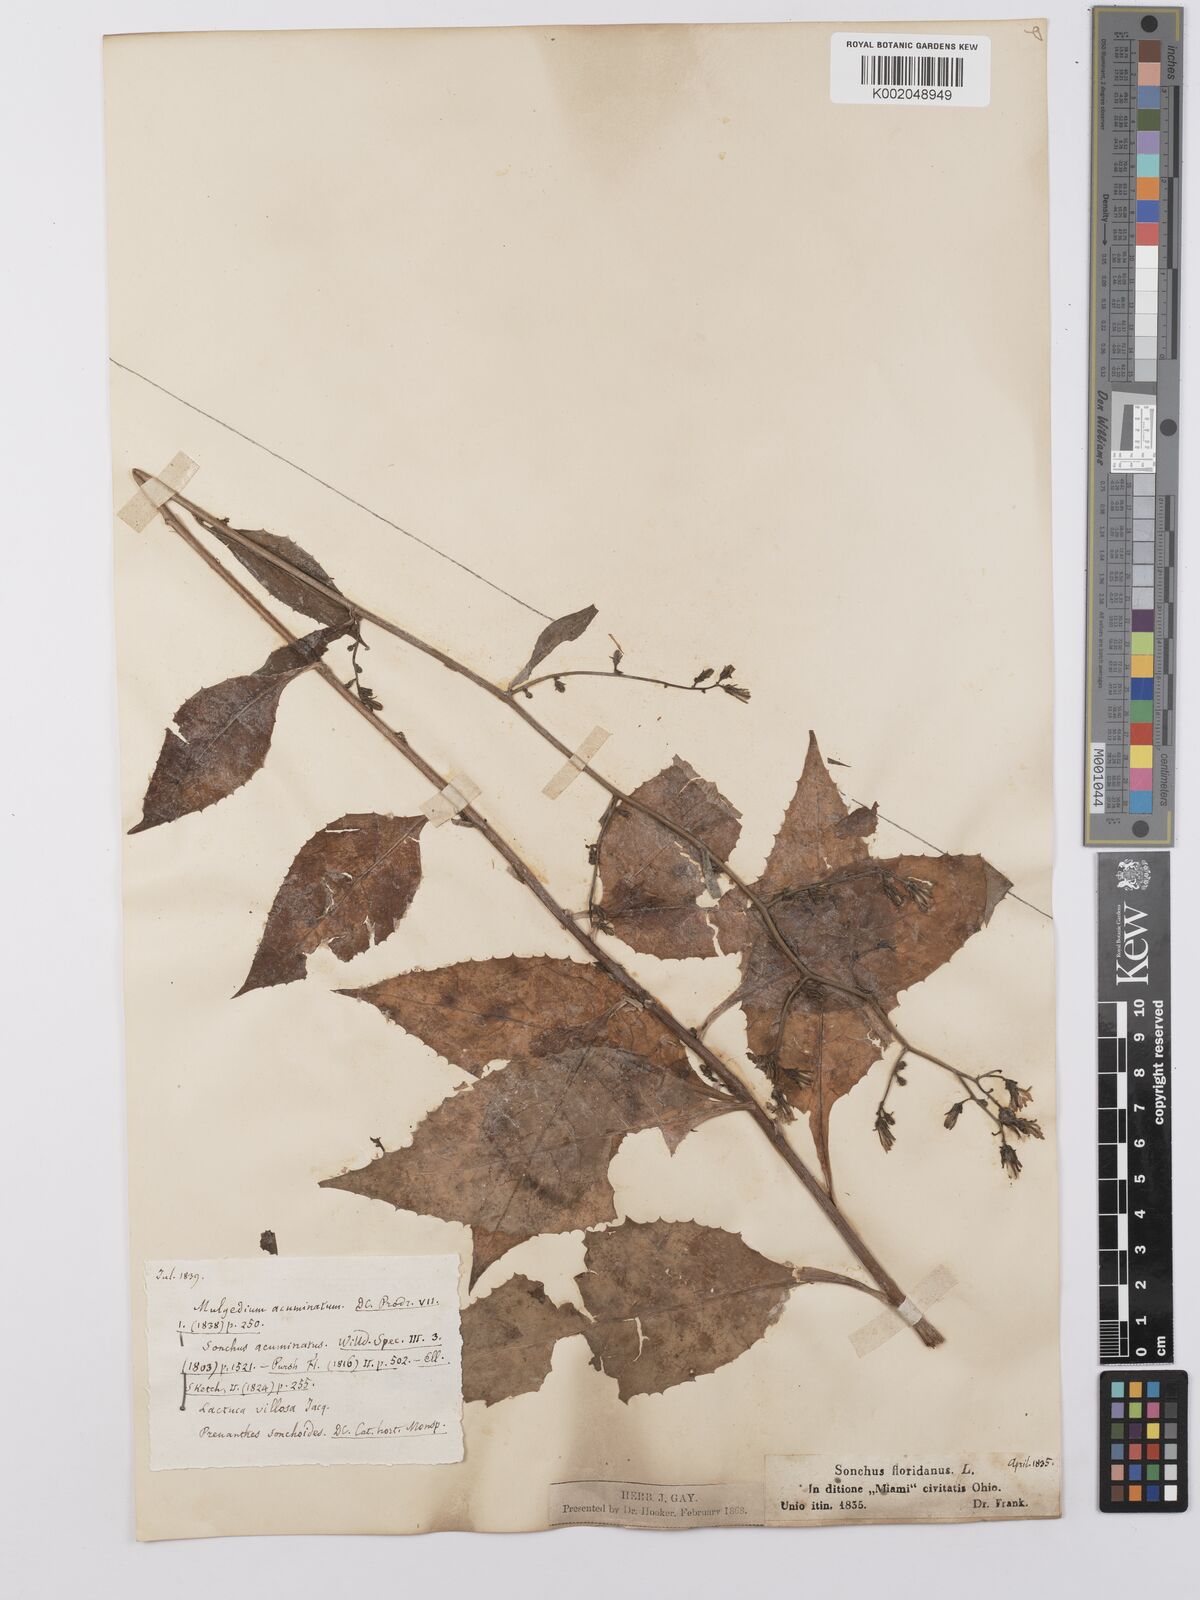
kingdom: Plantae
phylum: Tracheophyta
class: Magnoliopsida
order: Asterales
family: Asteraceae
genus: Lactuca
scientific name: Lactuca
